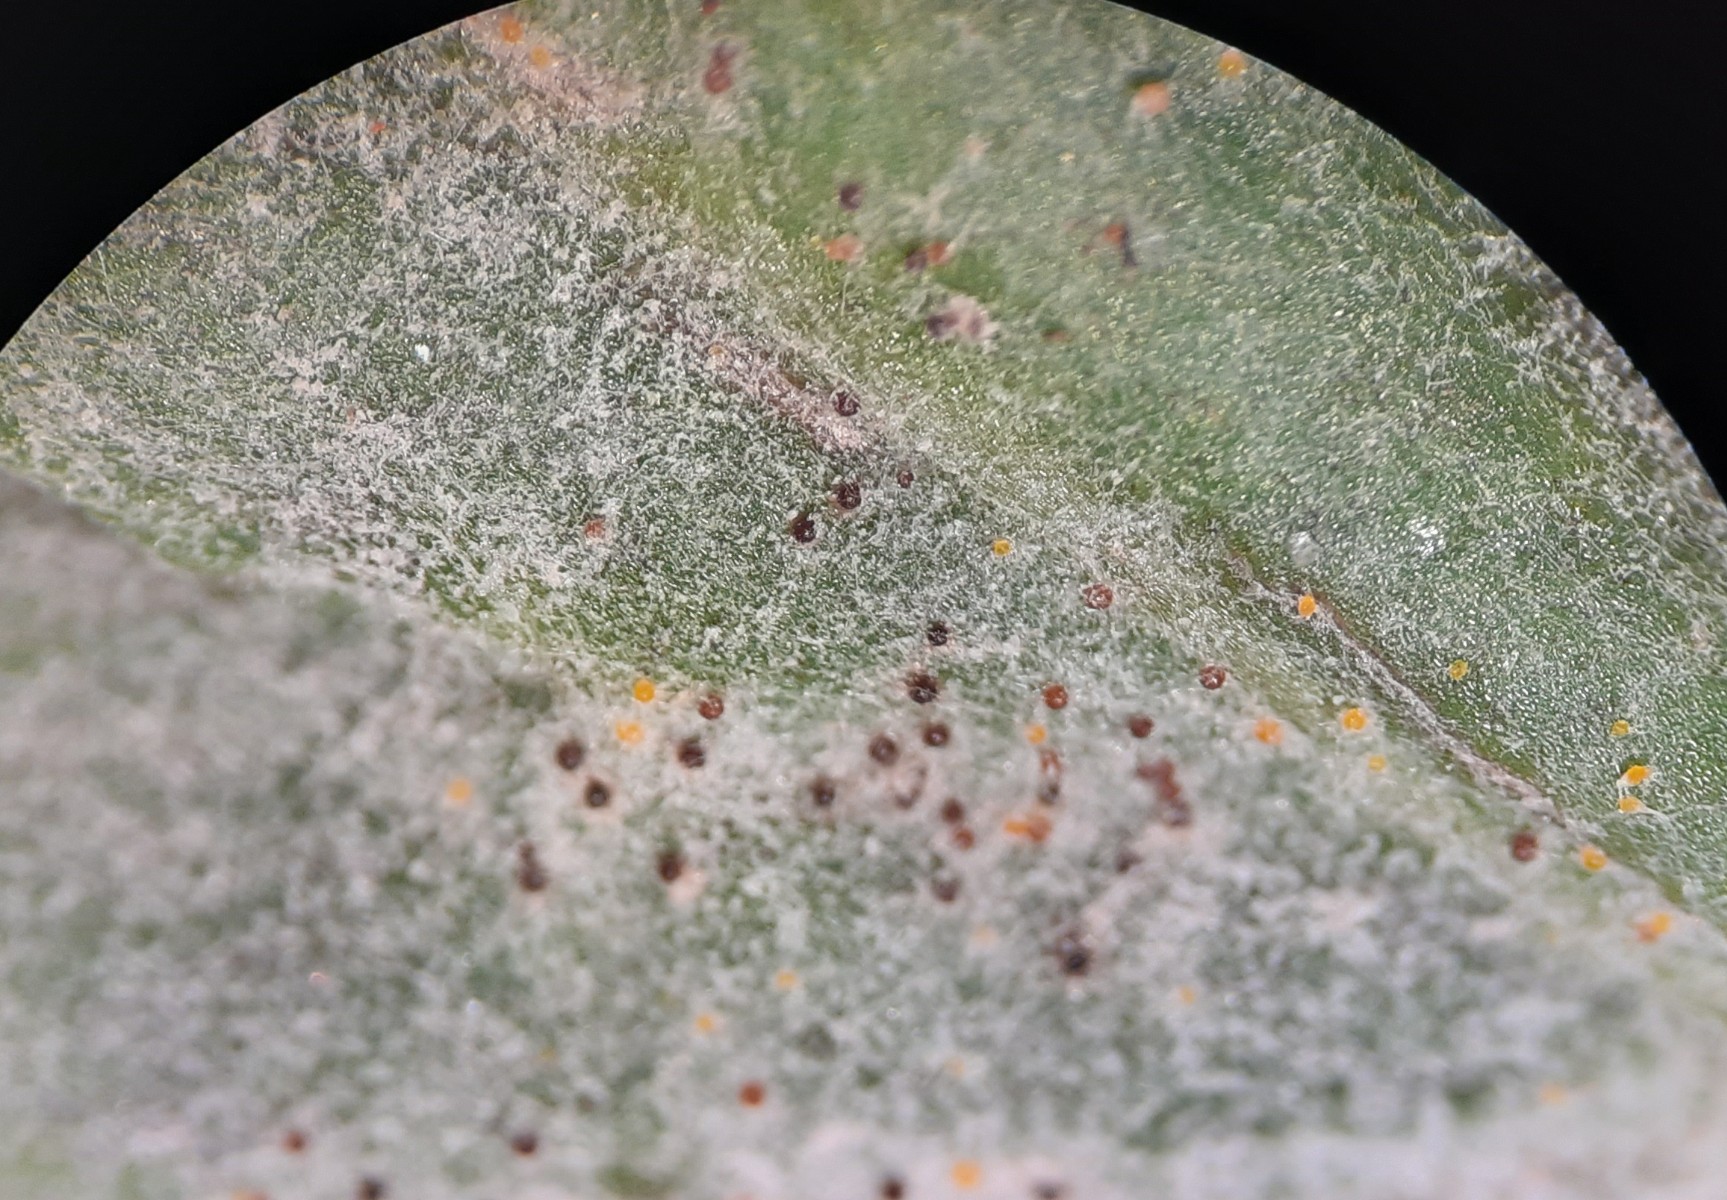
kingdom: Fungi
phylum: Ascomycota
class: Leotiomycetes
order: Helotiales
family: Erysiphaceae
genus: Golovinomyces
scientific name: Golovinomyces artemisiae
